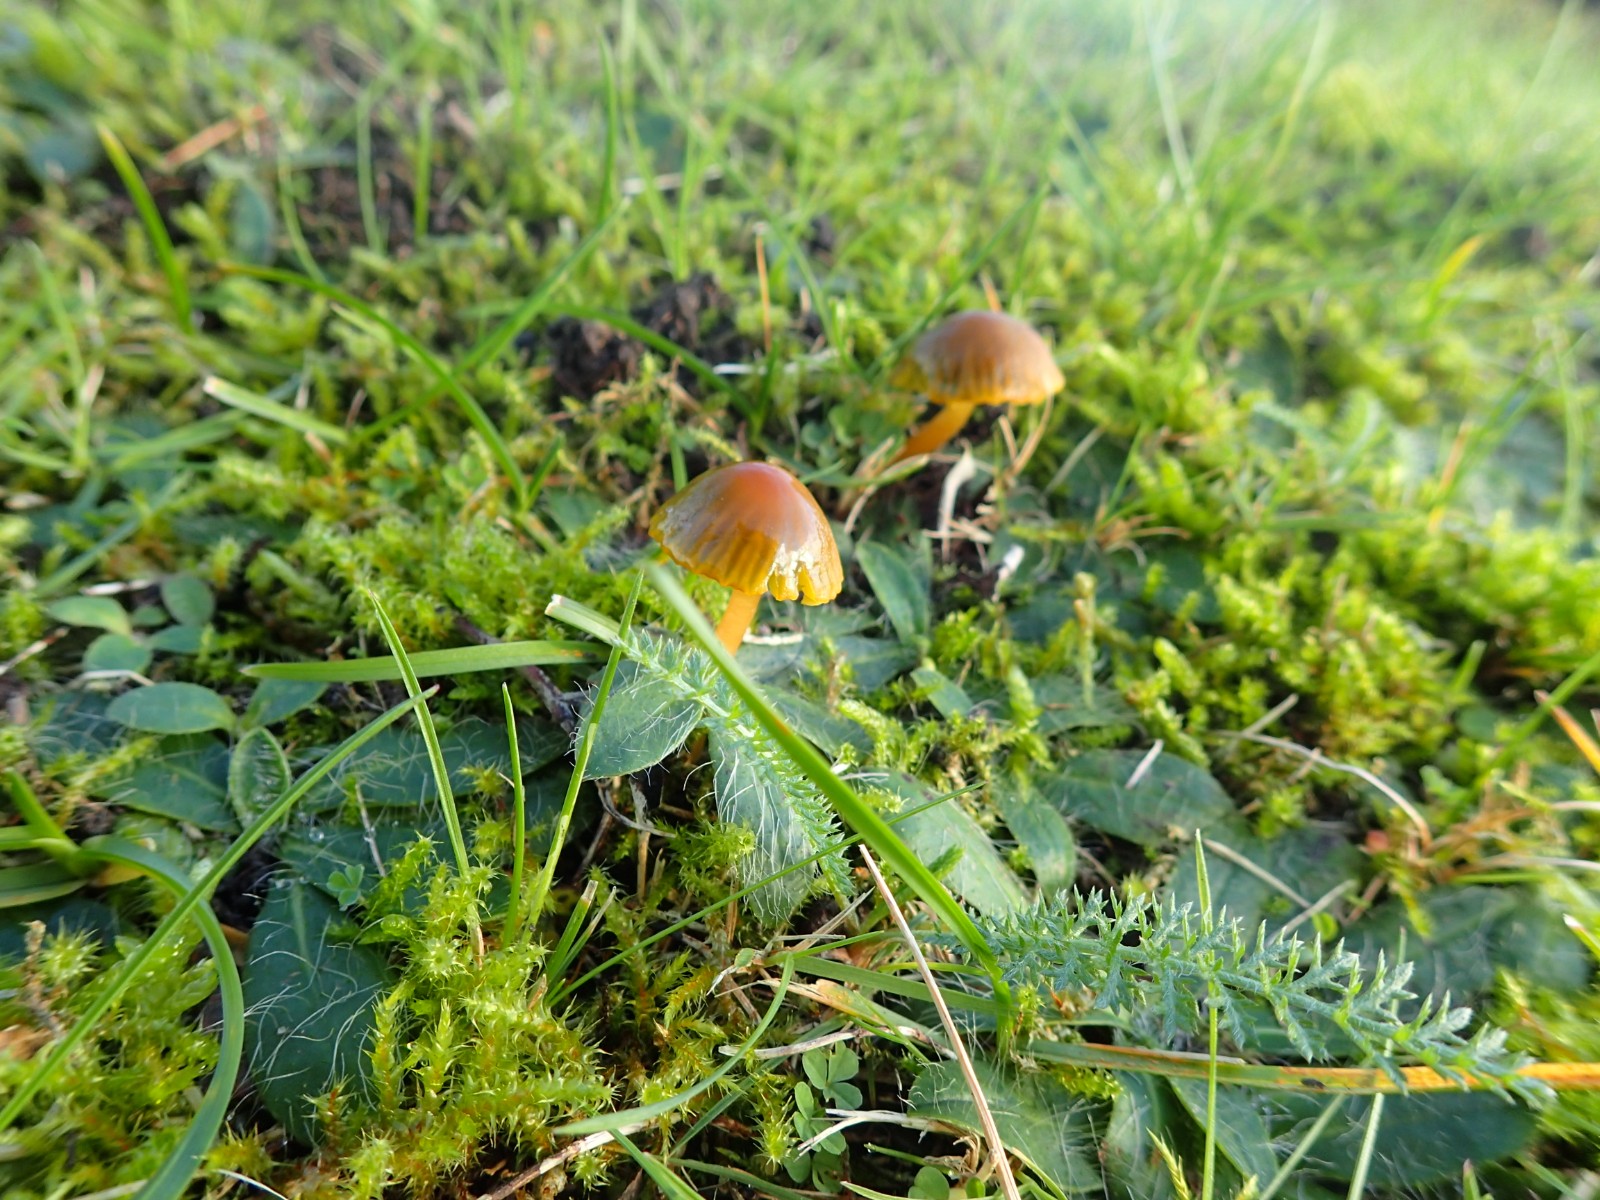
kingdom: Fungi
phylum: Basidiomycota
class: Agaricomycetes
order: Agaricales
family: Hygrophoraceae
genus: Gliophorus
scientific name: Gliophorus psittacinus
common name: papegøje-vokshat
